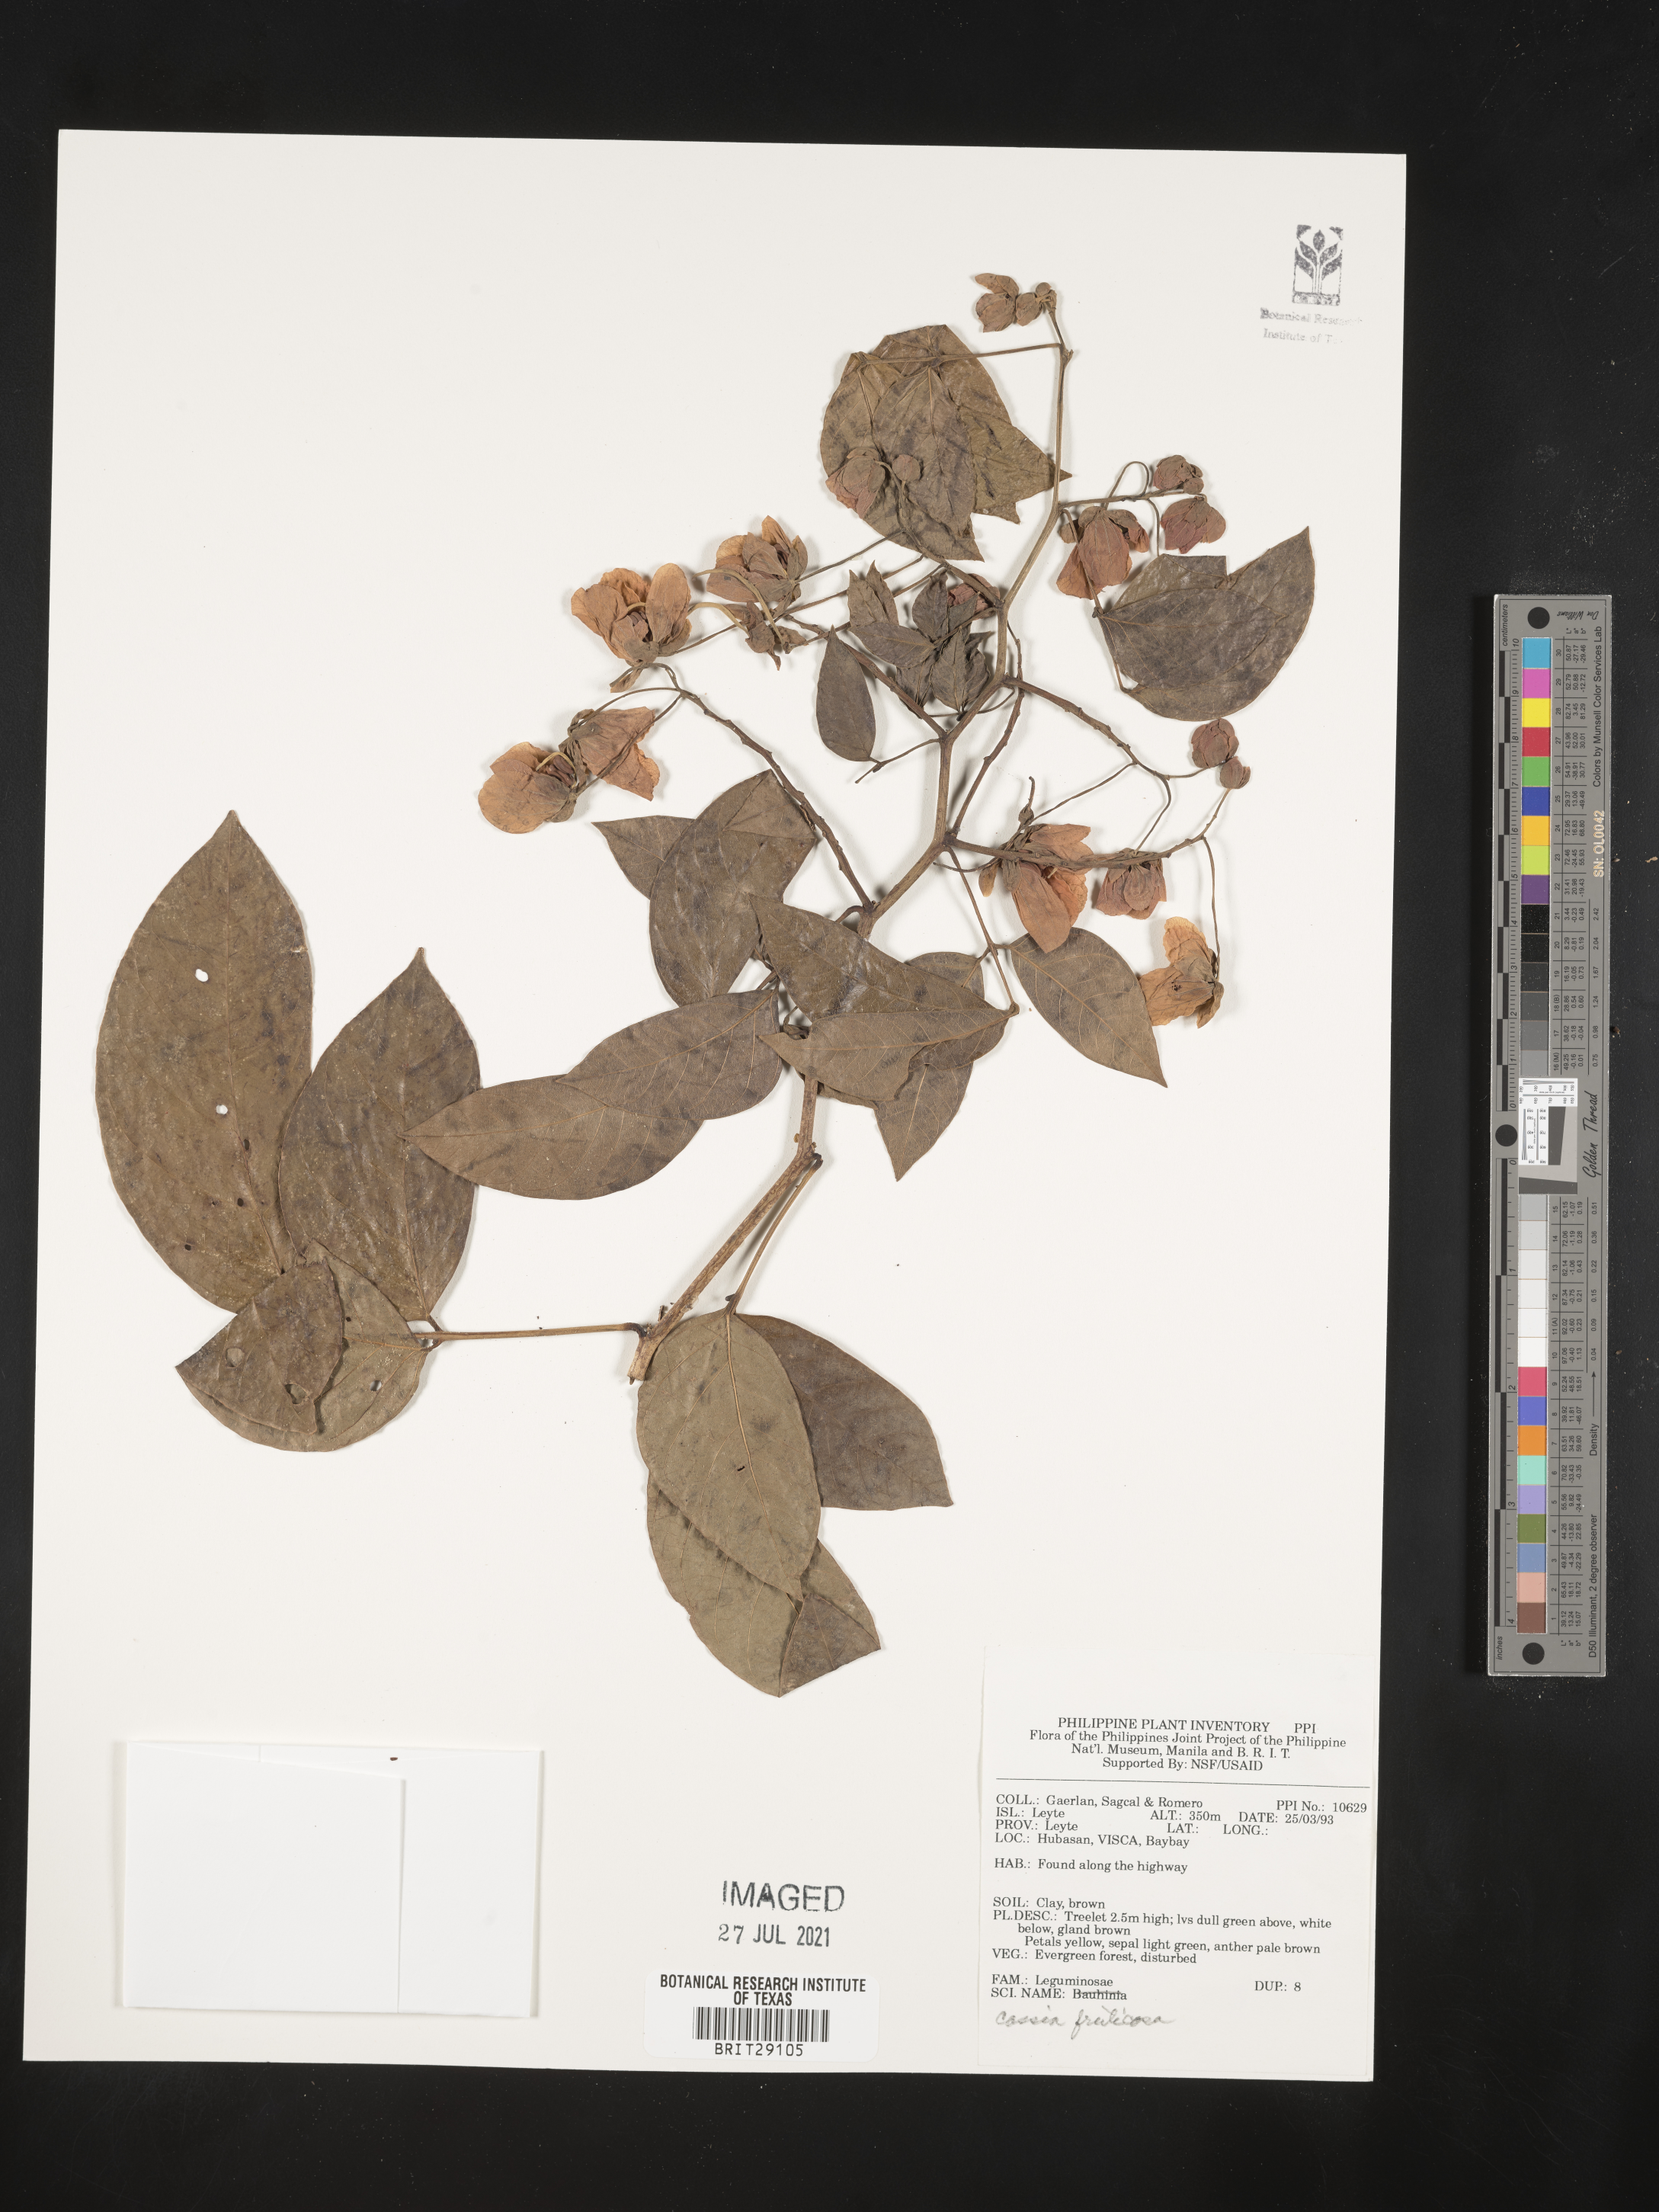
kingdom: Plantae
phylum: Tracheophyta
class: Magnoliopsida
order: Fabales
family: Fabaceae
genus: Senna
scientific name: Senna fruticosa
